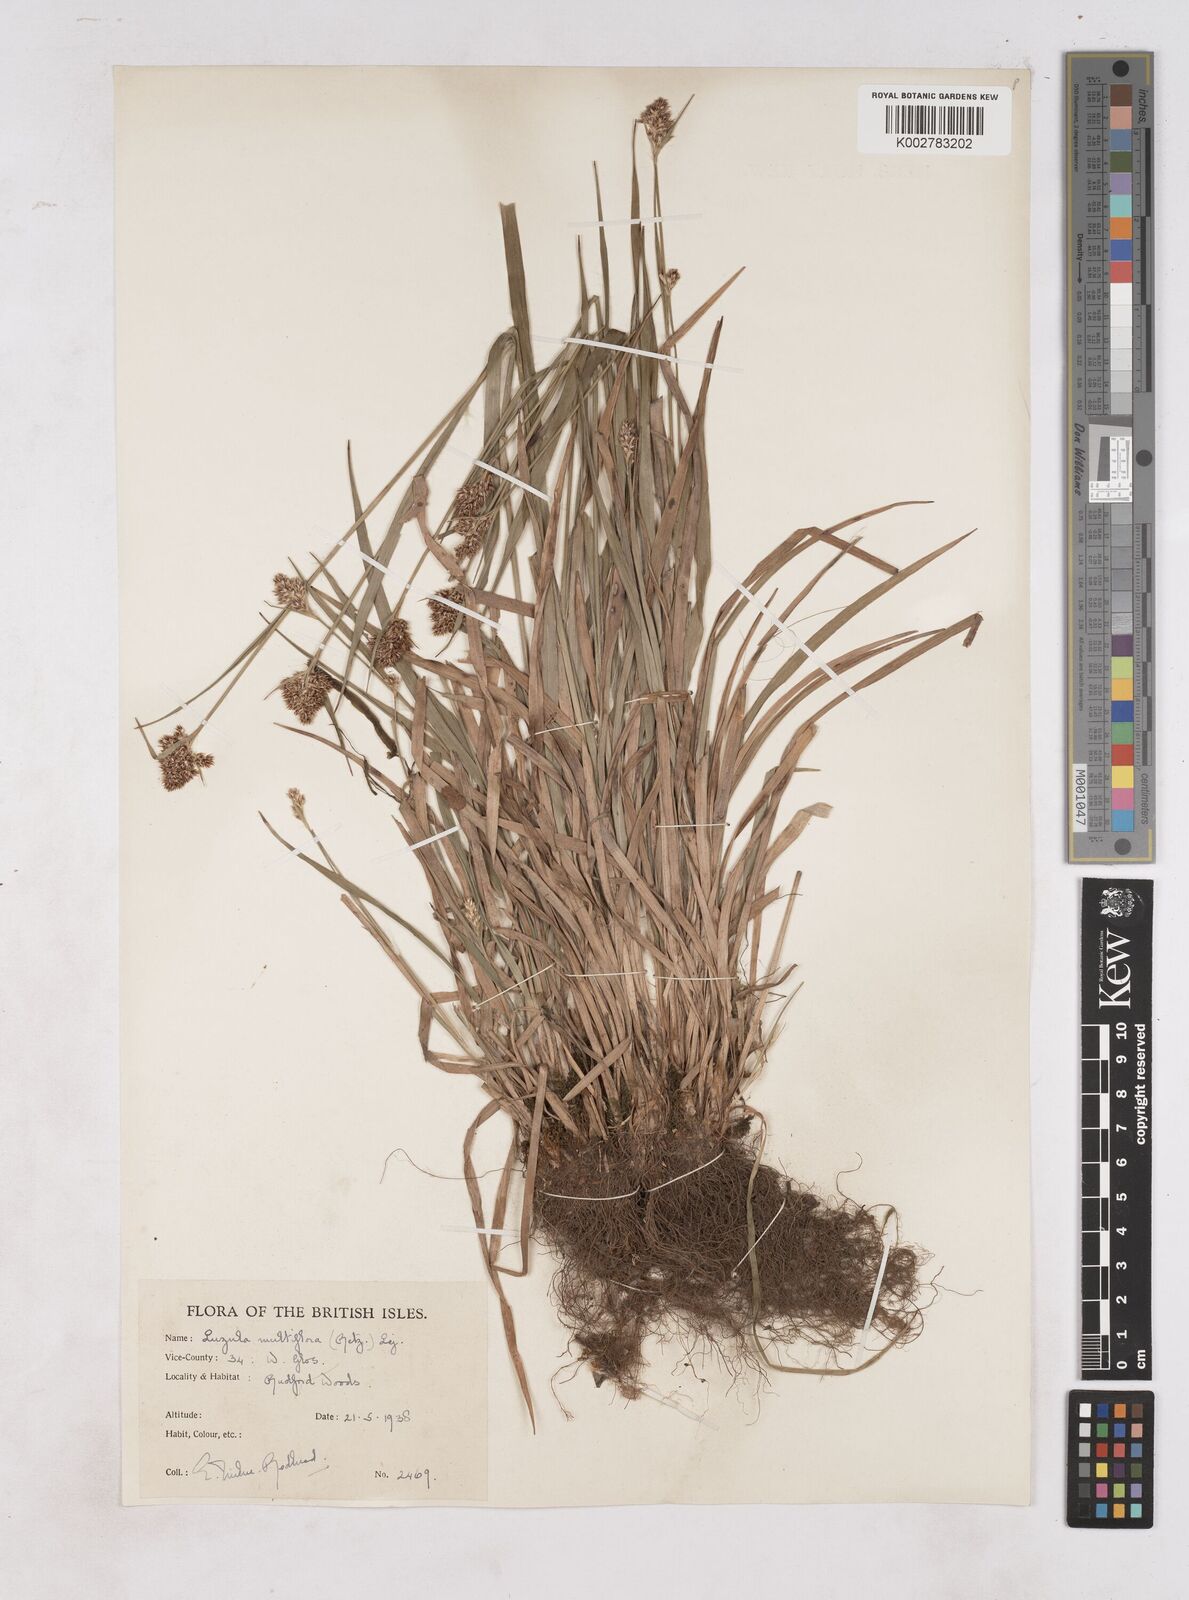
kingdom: Plantae
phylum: Tracheophyta
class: Liliopsida
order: Poales
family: Juncaceae
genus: Luzula
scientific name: Luzula multiflora
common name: Heath wood-rush
